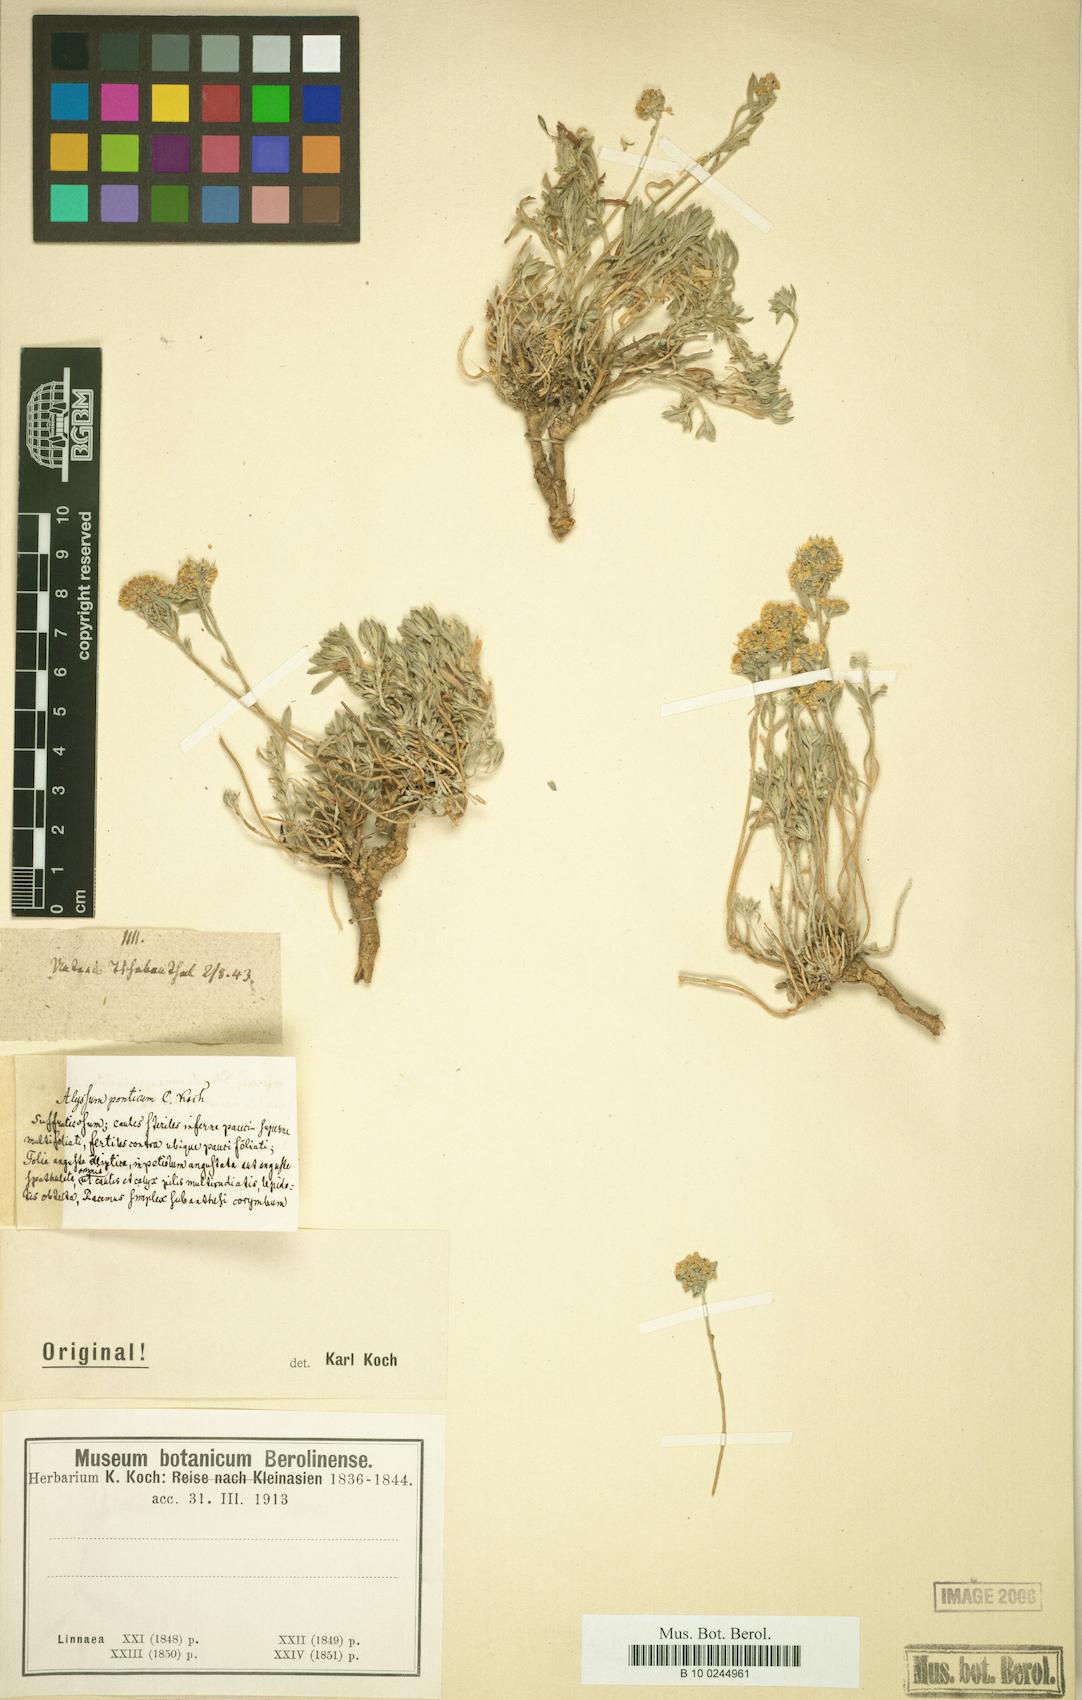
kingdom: Plantae
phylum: Tracheophyta
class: Magnoliopsida
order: Brassicales
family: Brassicaceae
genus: Alyssum
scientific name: Alyssum minutum
